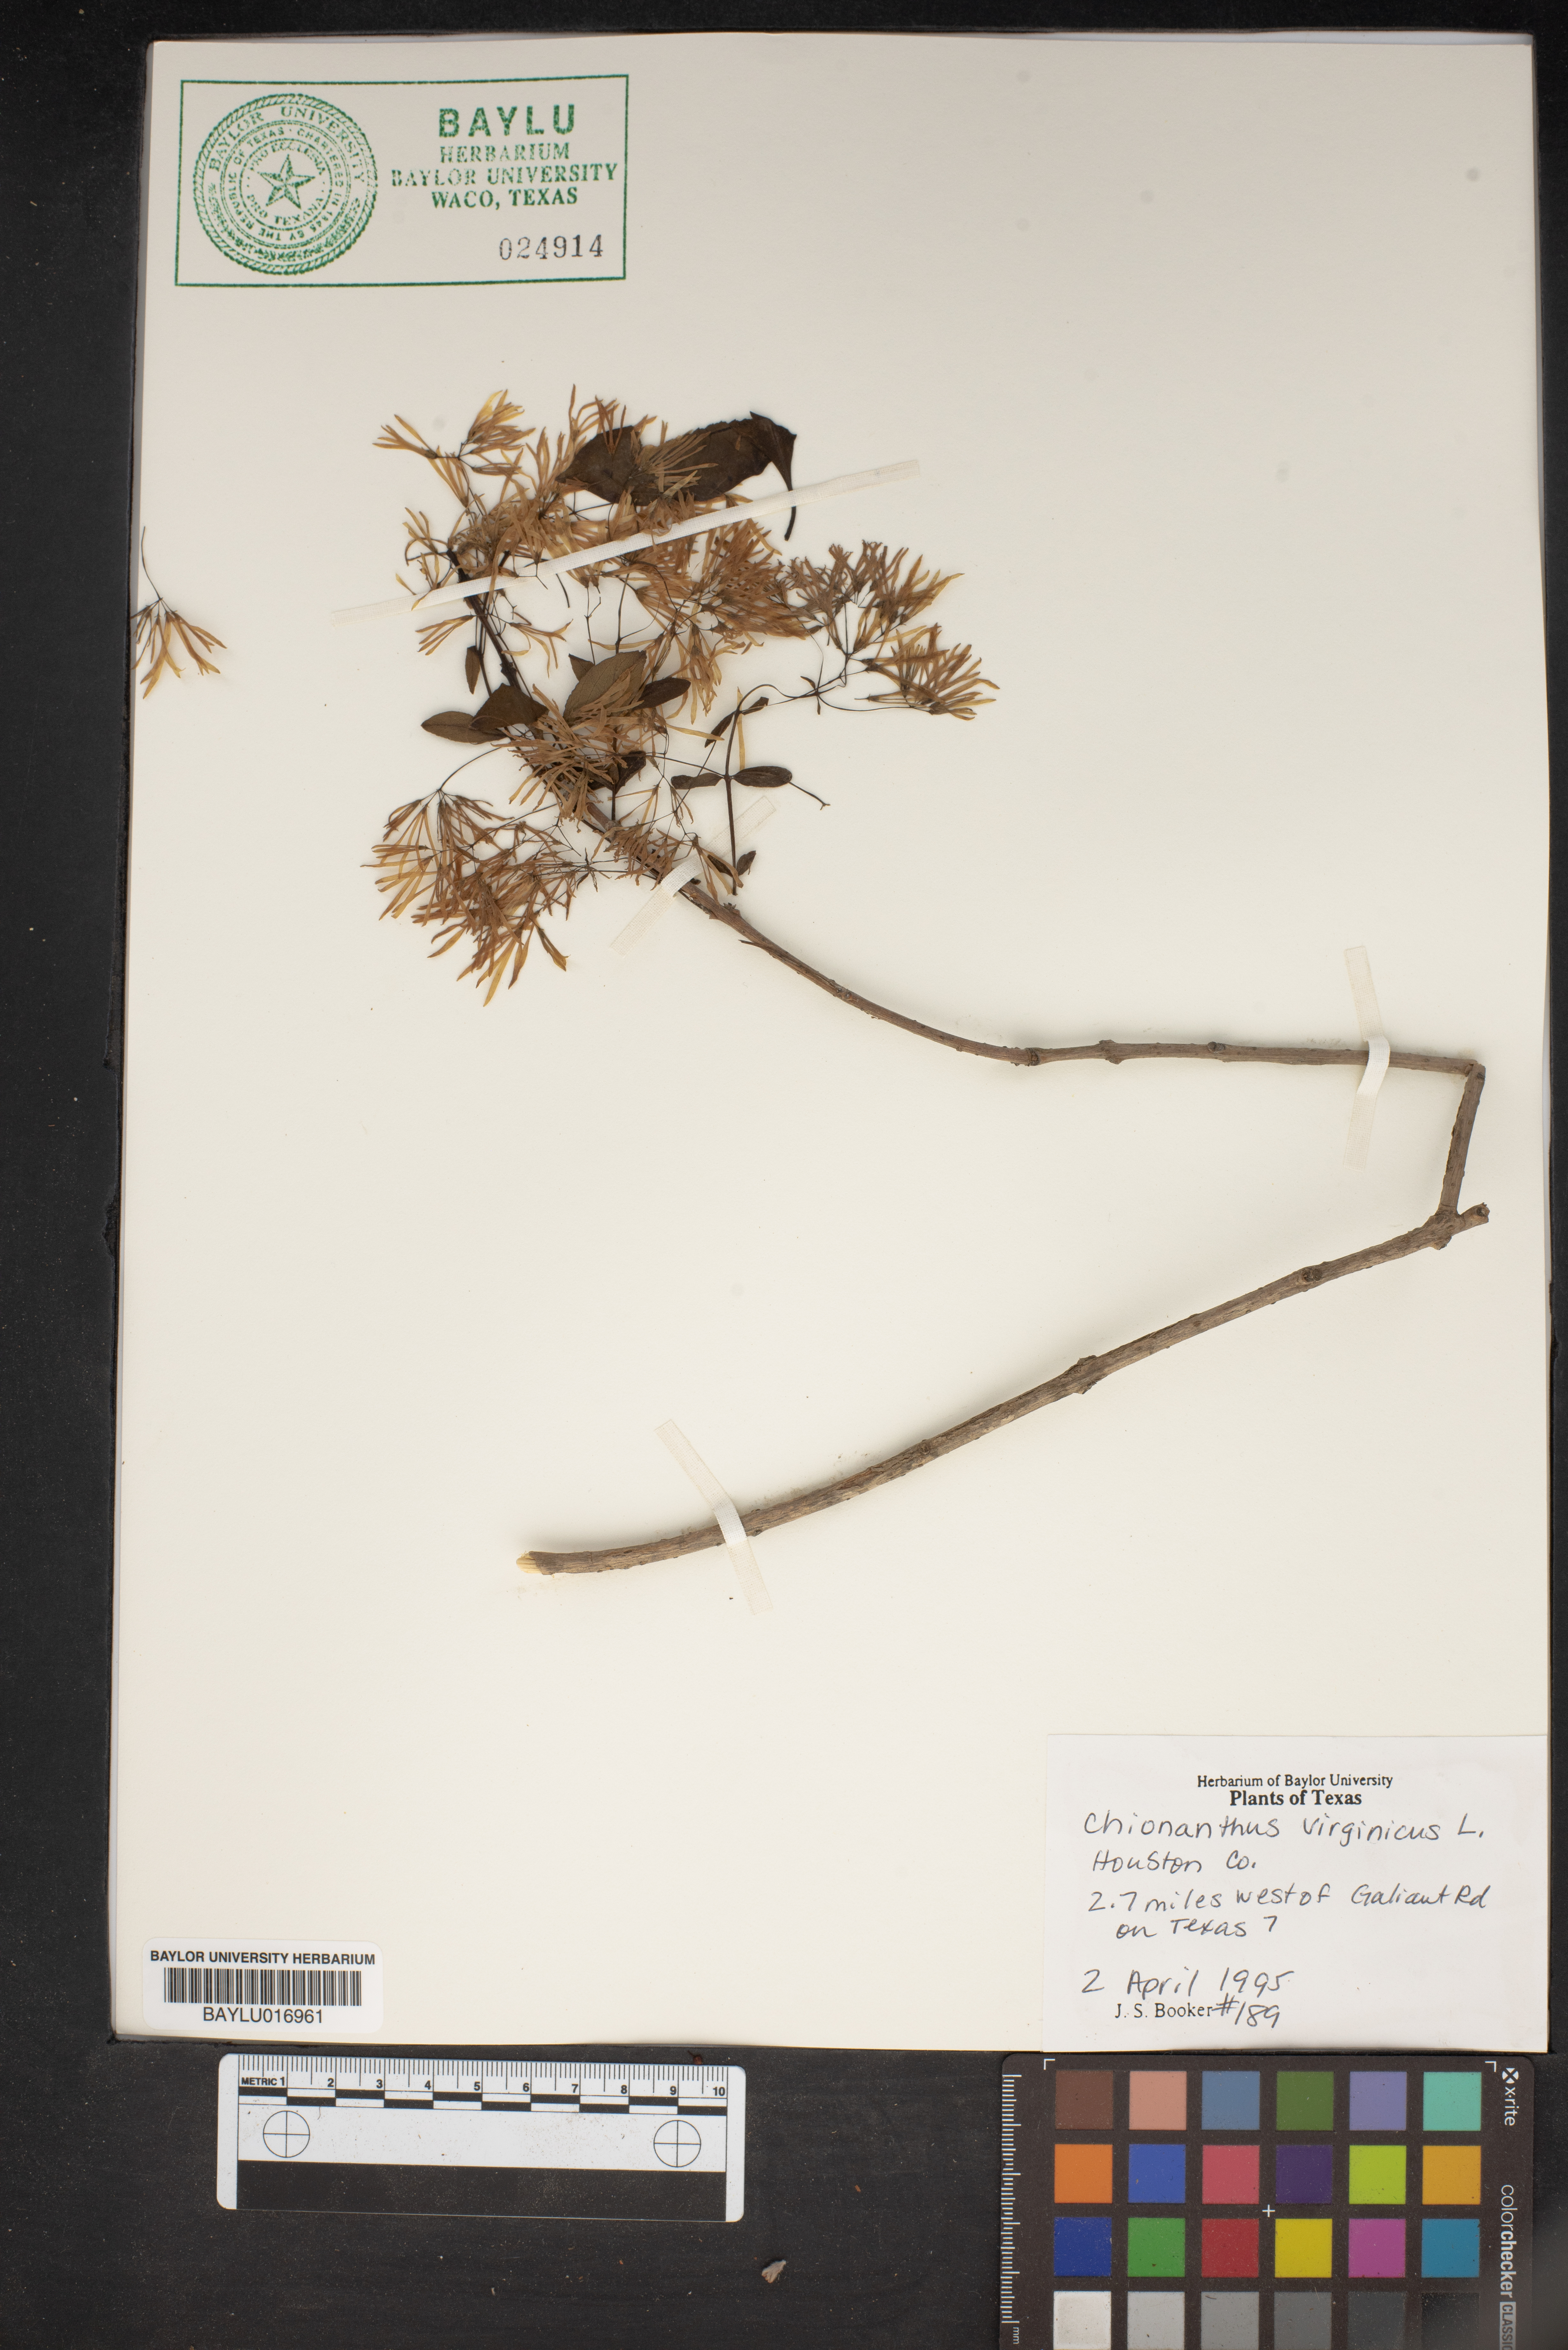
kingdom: Plantae
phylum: Tracheophyta
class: Magnoliopsida
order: Lamiales
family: Oleaceae
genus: Chionanthus
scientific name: Chionanthus virginicus
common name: American fringetree
